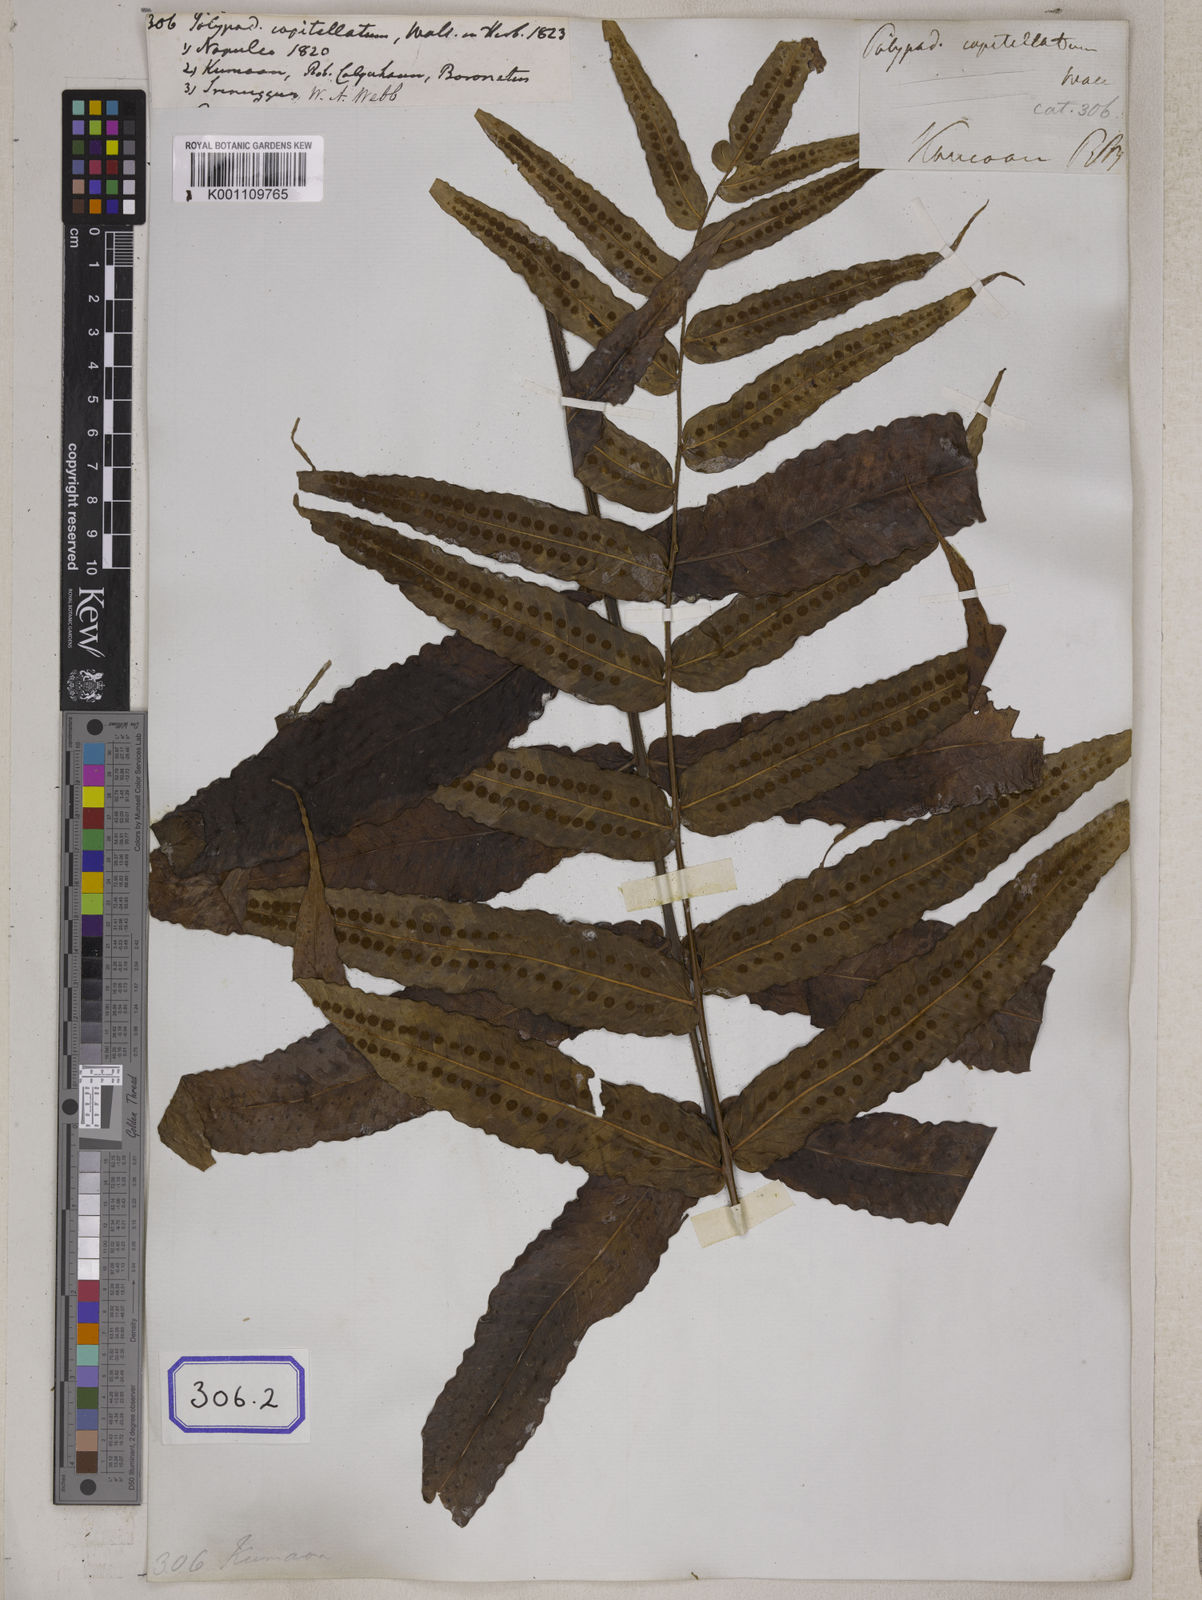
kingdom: Plantae
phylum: Tracheophyta
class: Polypodiopsida
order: Polypodiales
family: Polypodiaceae
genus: Selliguea
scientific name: Selliguea capitellata
